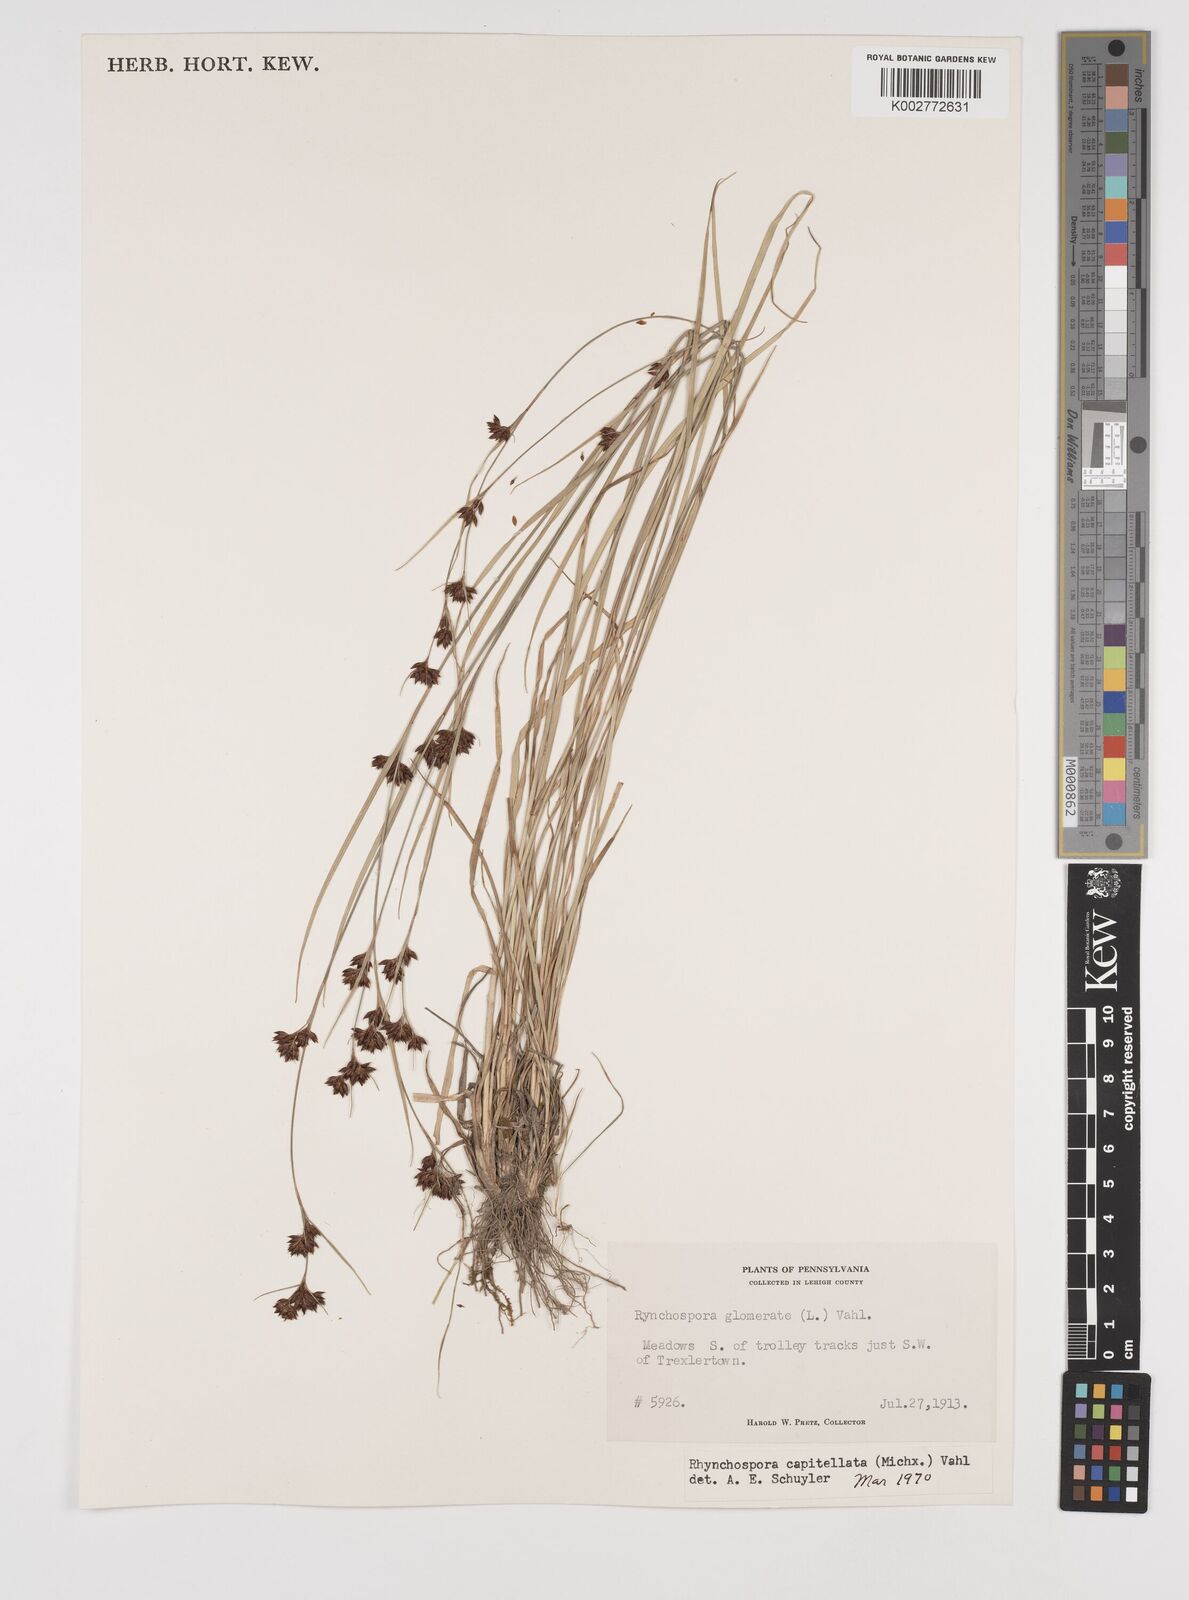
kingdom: Plantae
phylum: Tracheophyta
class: Liliopsida
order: Poales
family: Cyperaceae
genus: Rhynchospora
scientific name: Rhynchospora capitellata
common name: Brownish beaksedge
